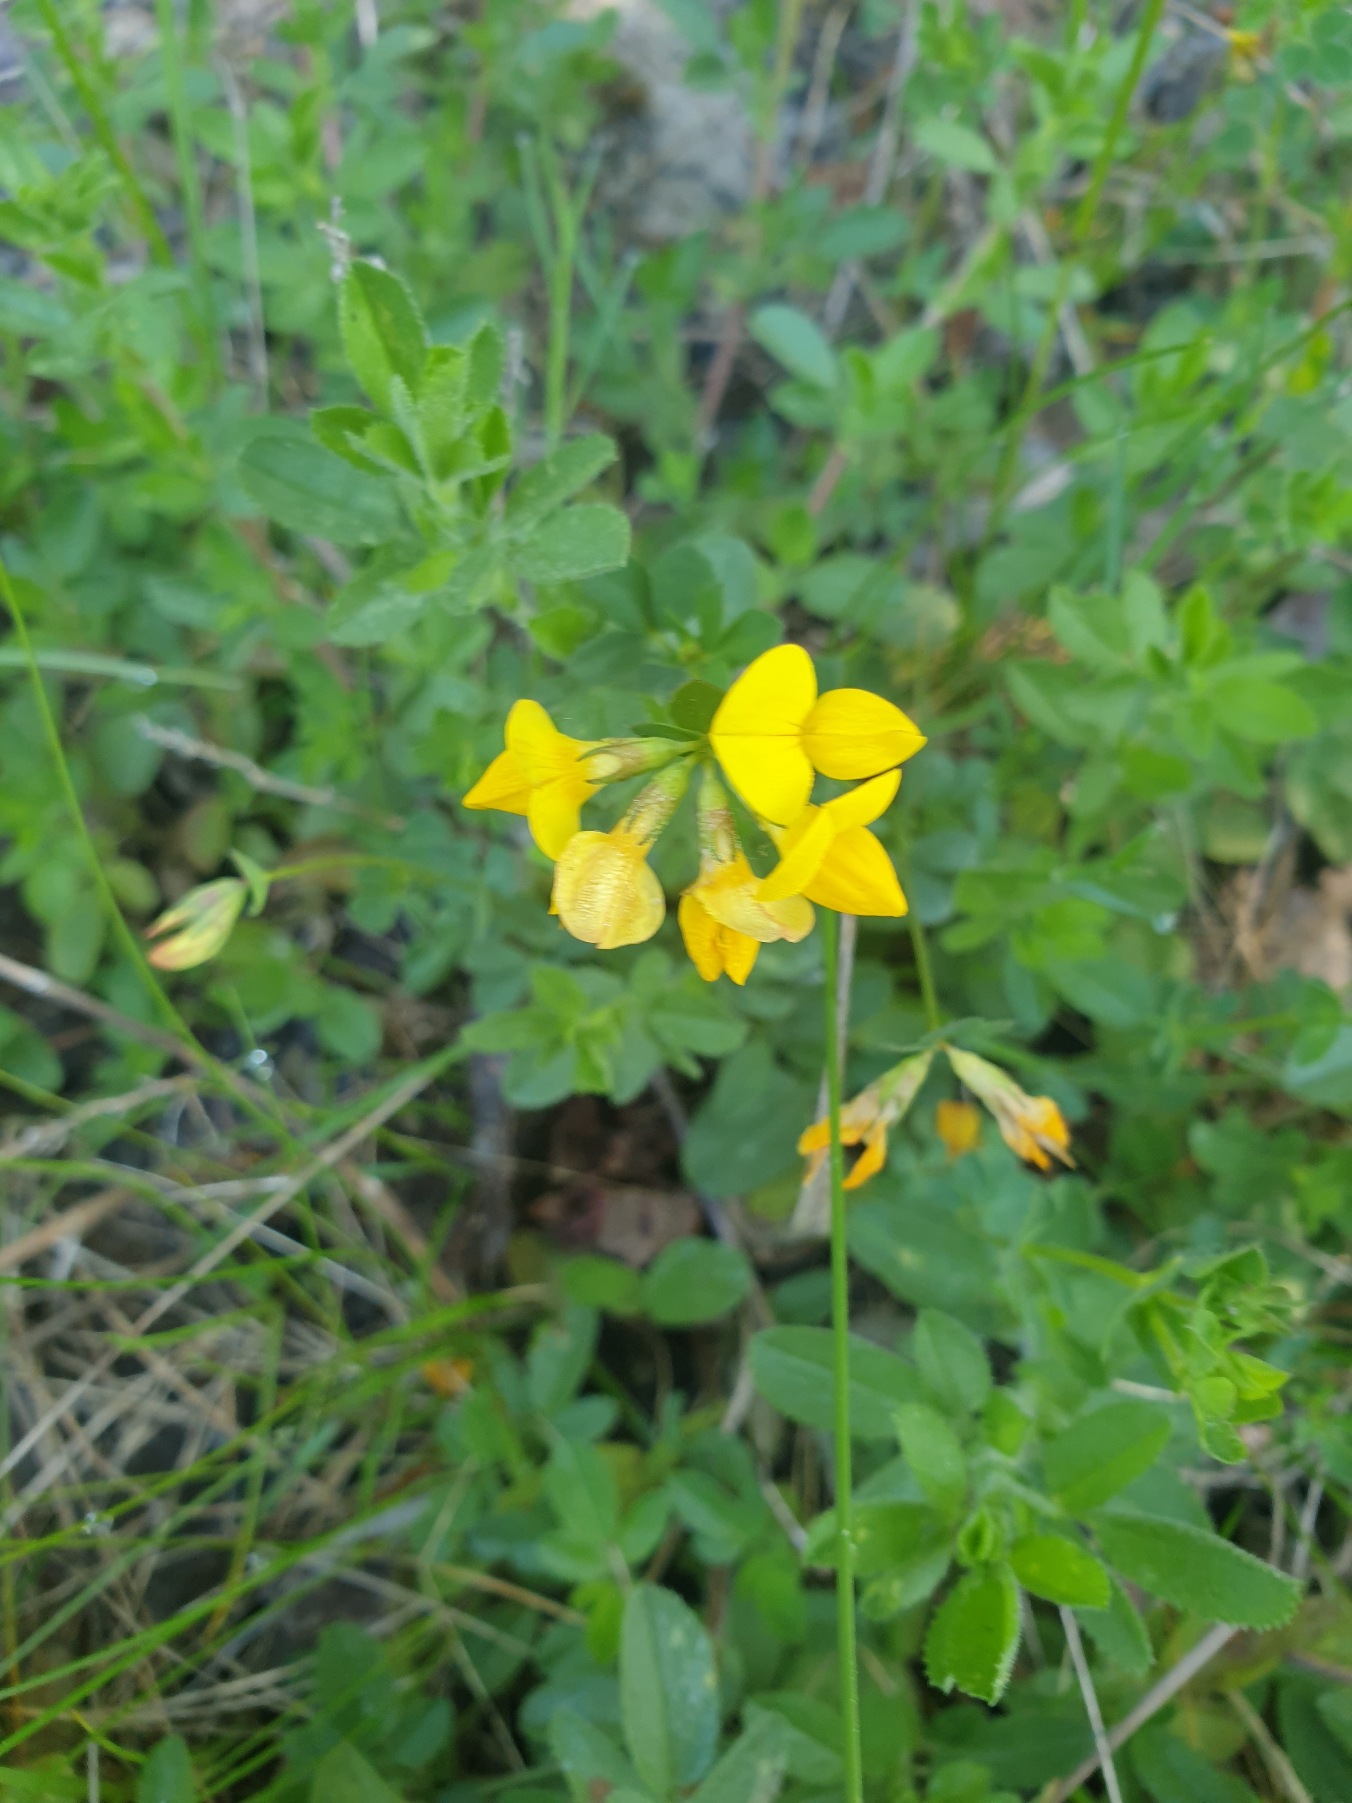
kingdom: Plantae
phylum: Tracheophyta
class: Magnoliopsida
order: Fabales
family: Fabaceae
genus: Lotus
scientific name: Lotus corniculatus
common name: Almindelig kællingetand
